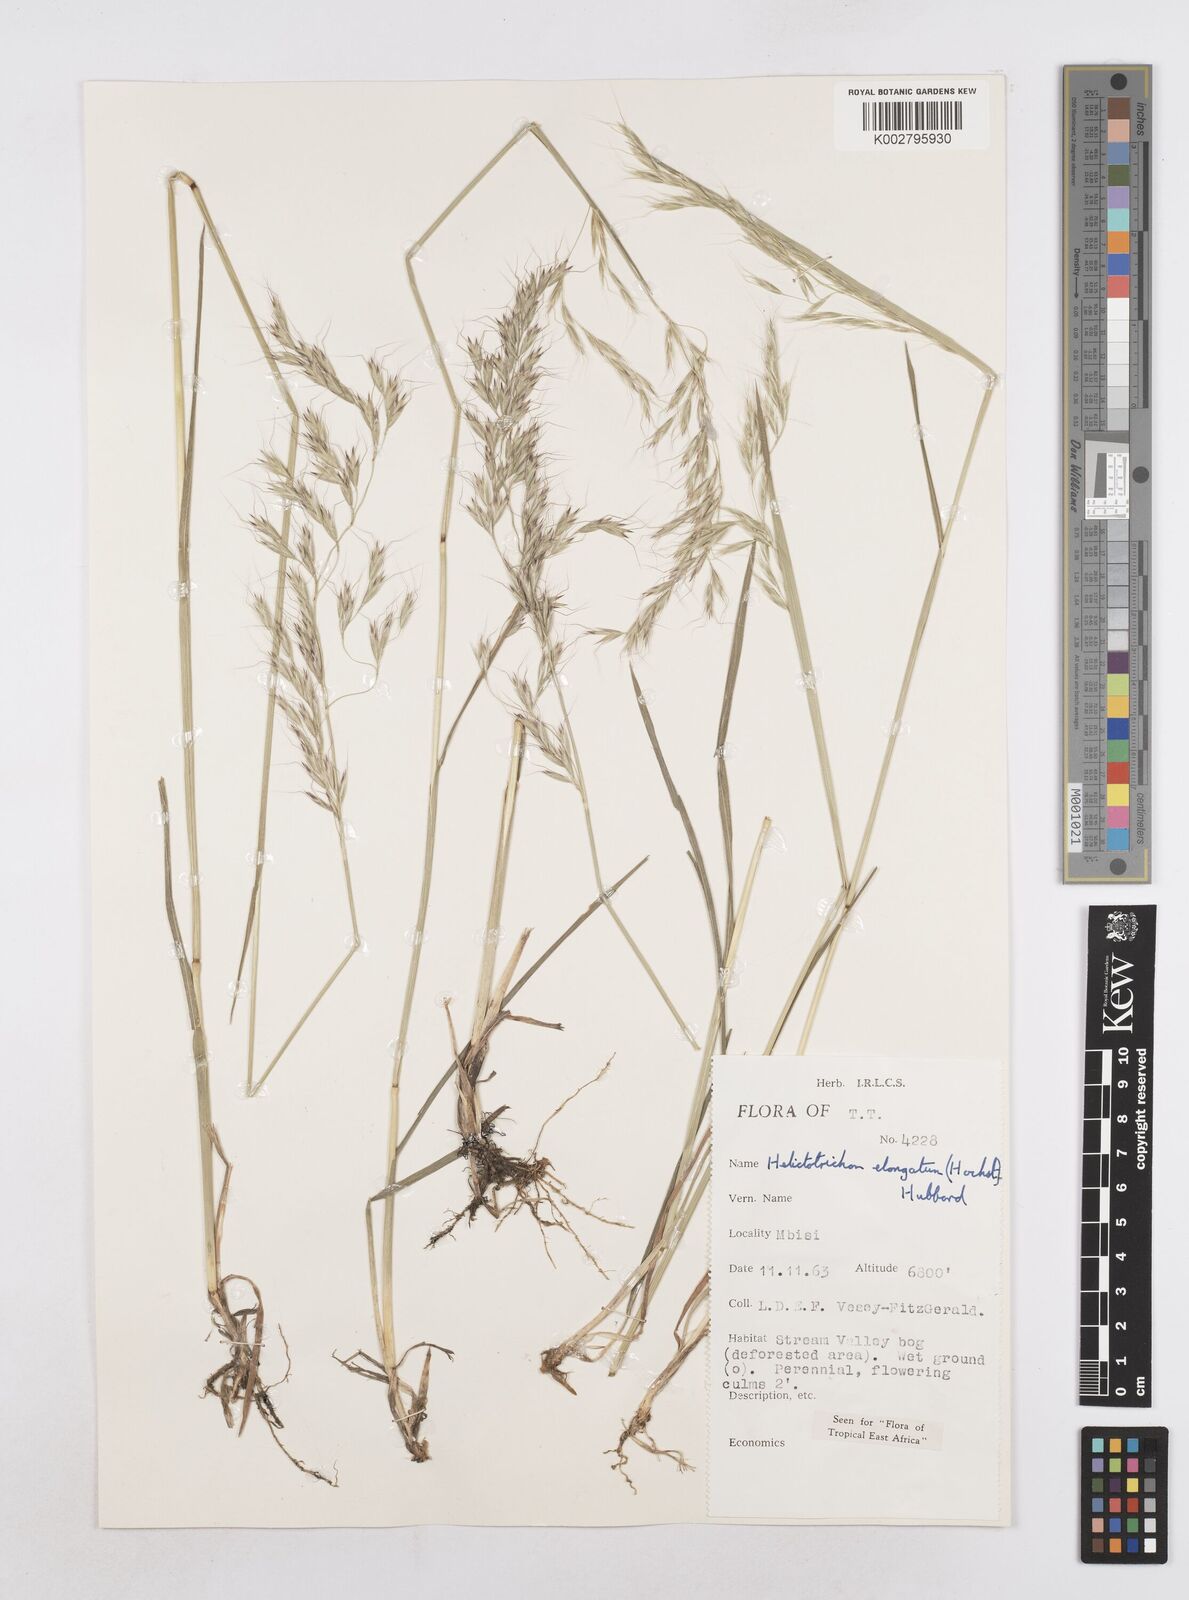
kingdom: Plantae
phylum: Tracheophyta
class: Liliopsida
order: Poales
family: Poaceae
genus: Trisetopsis
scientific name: Trisetopsis elongata
